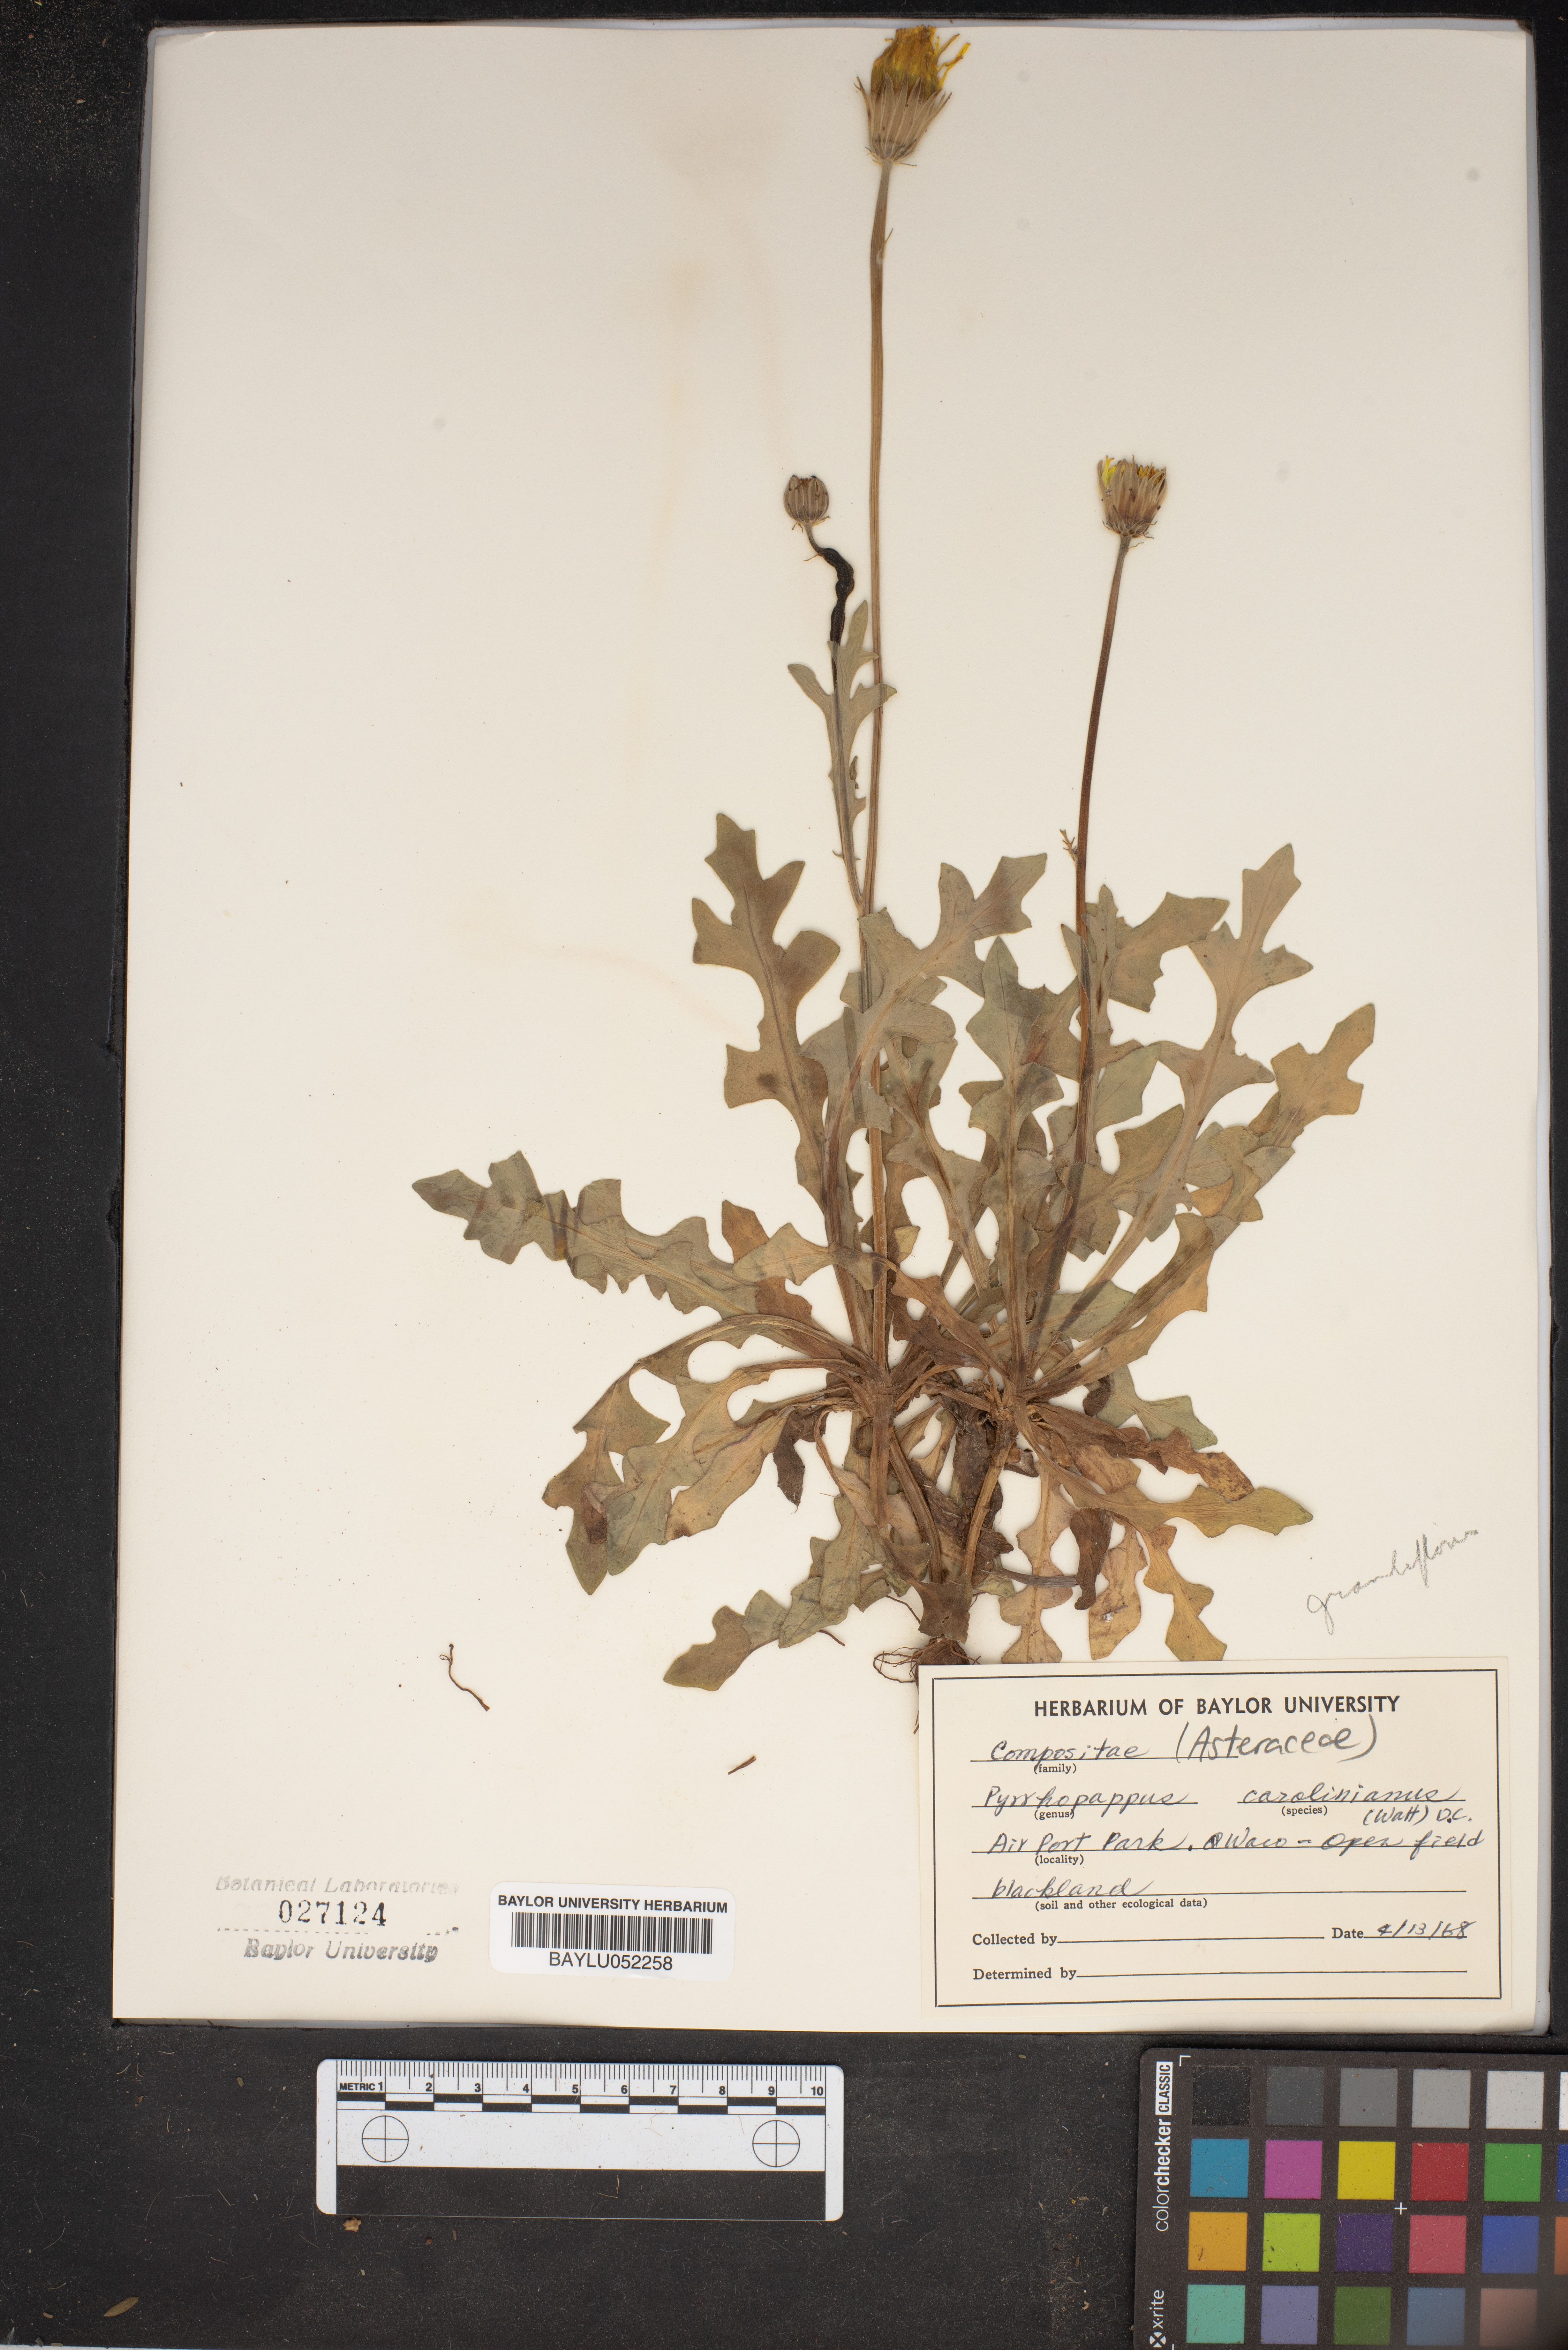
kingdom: Plantae
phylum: Tracheophyta
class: Magnoliopsida
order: Asterales
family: Asteraceae
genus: Pyrrhopappus
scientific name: Pyrrhopappus carolinianus
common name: Carolina desert-chicory
